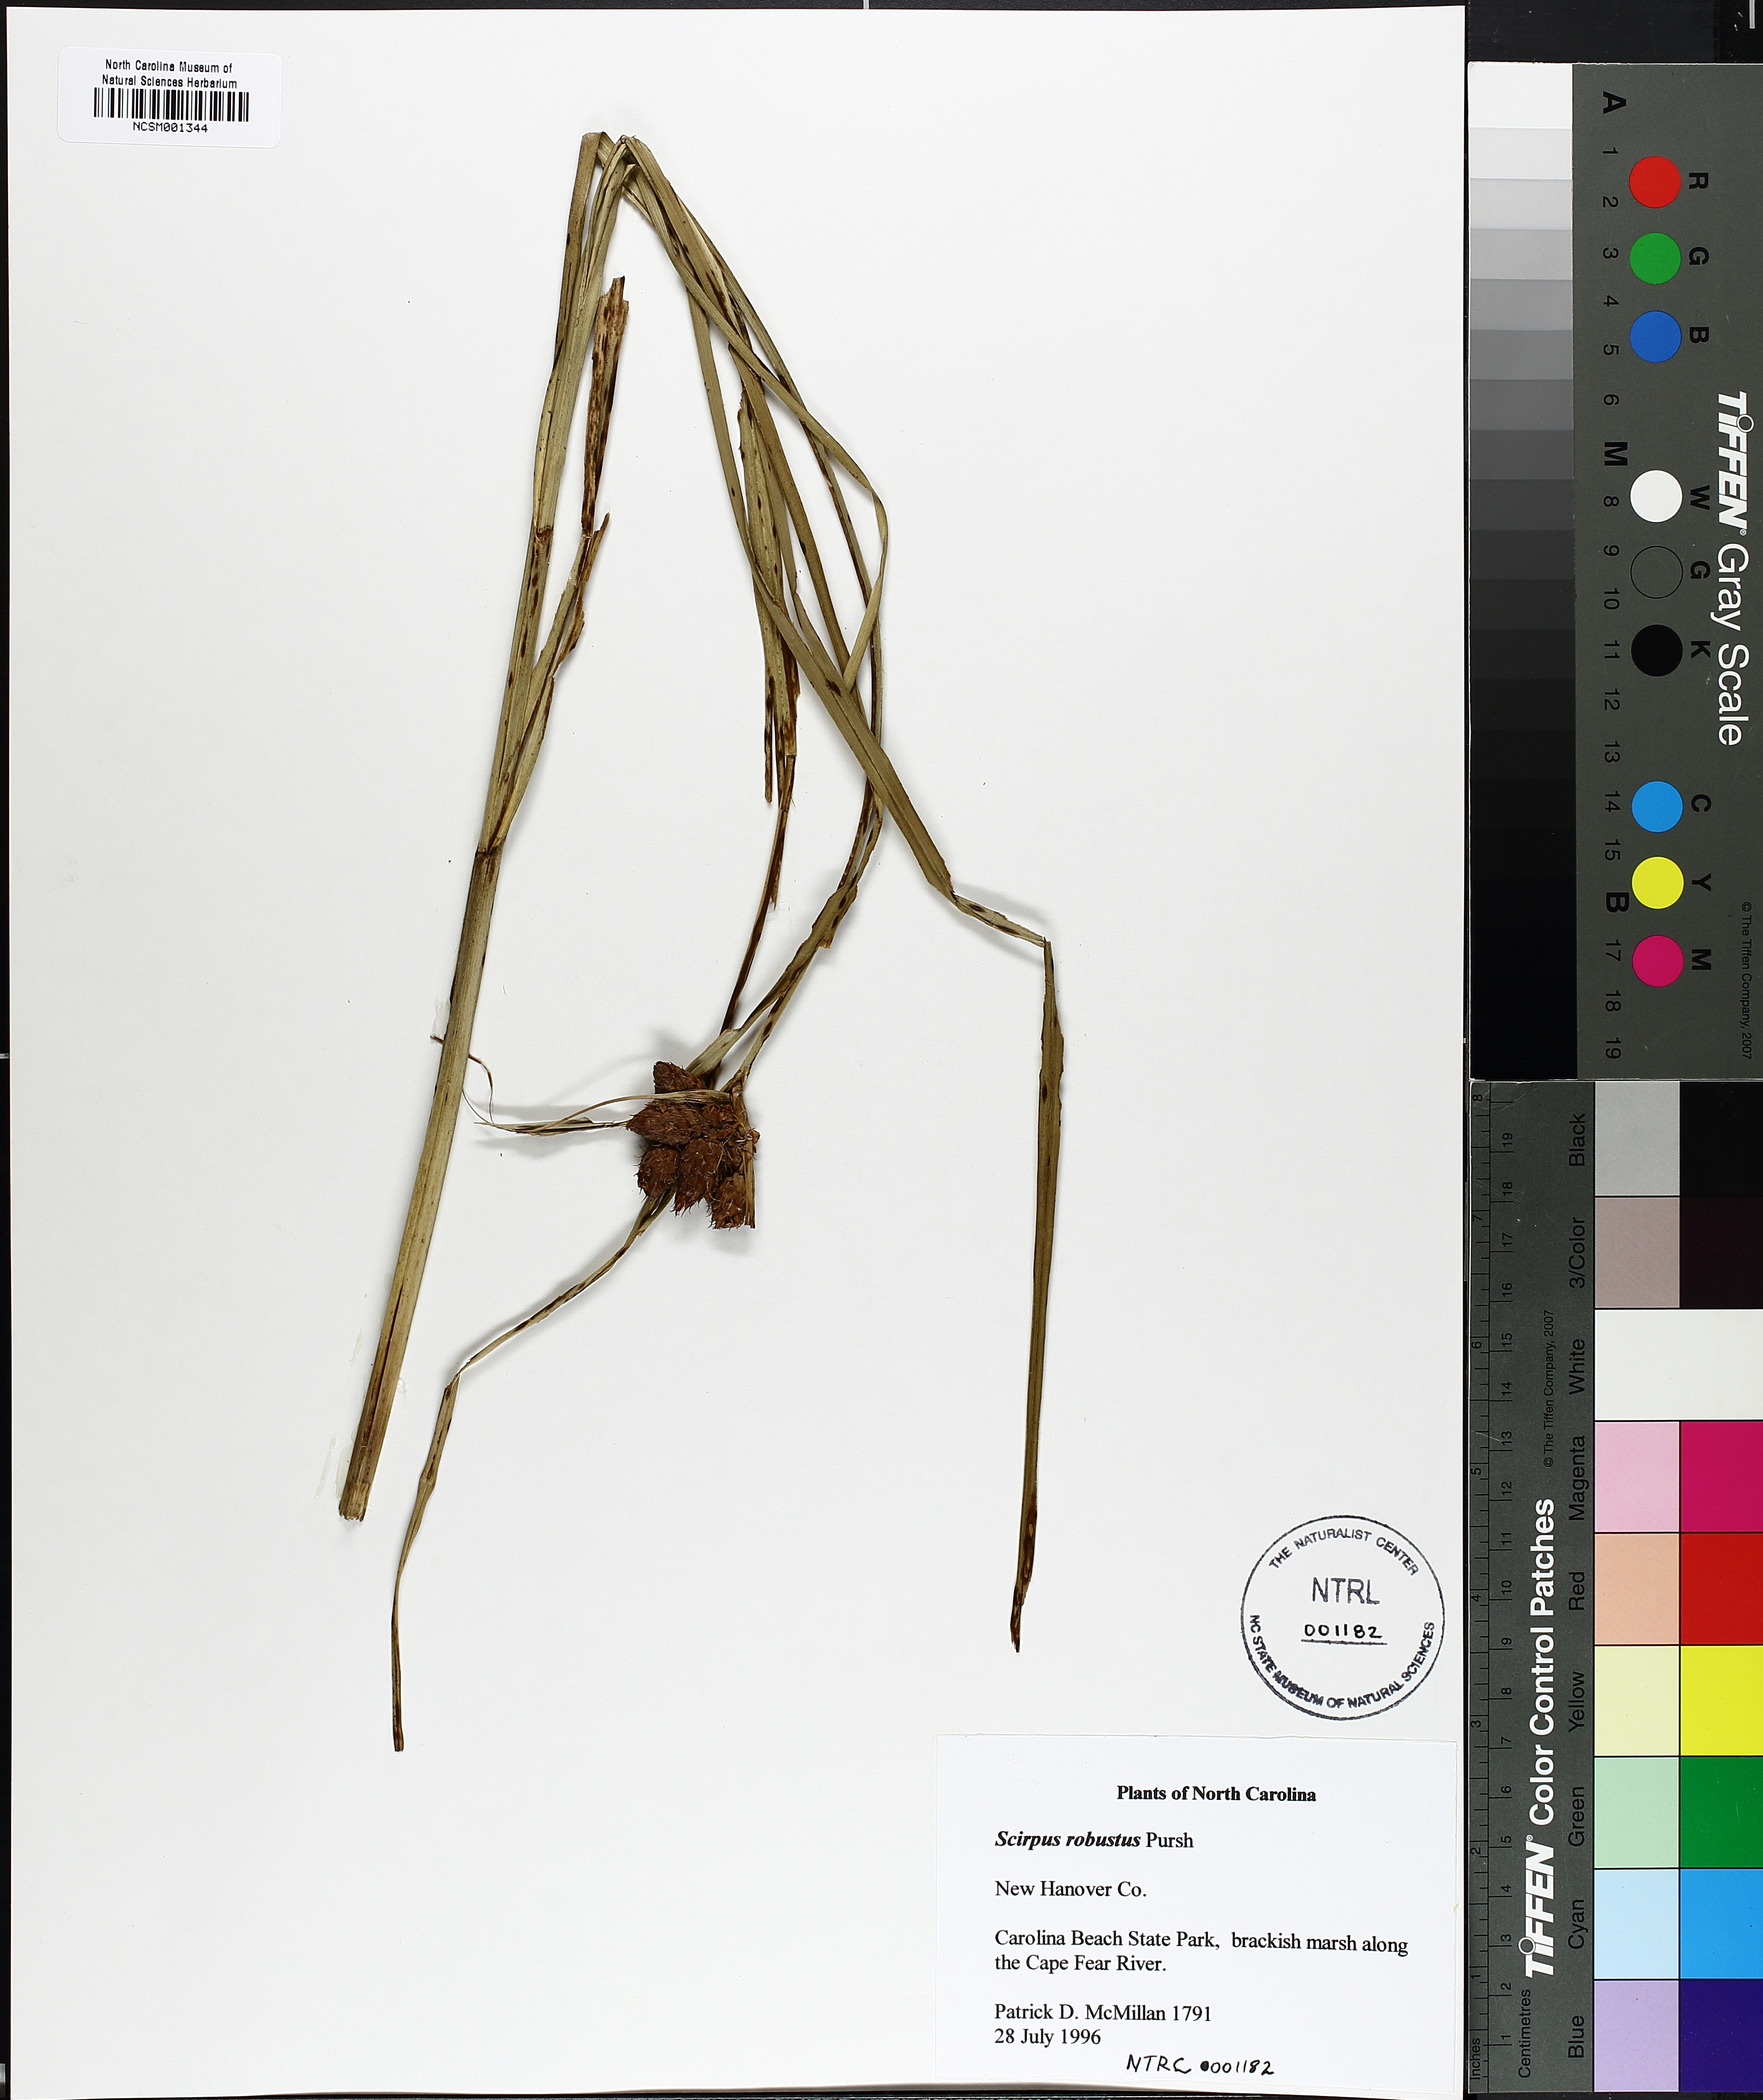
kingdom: Plantae
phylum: Tracheophyta
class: Liliopsida
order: Poales
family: Cyperaceae
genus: Bolboschoenus
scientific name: Bolboschoenus robustus
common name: Seacoast bulrush
